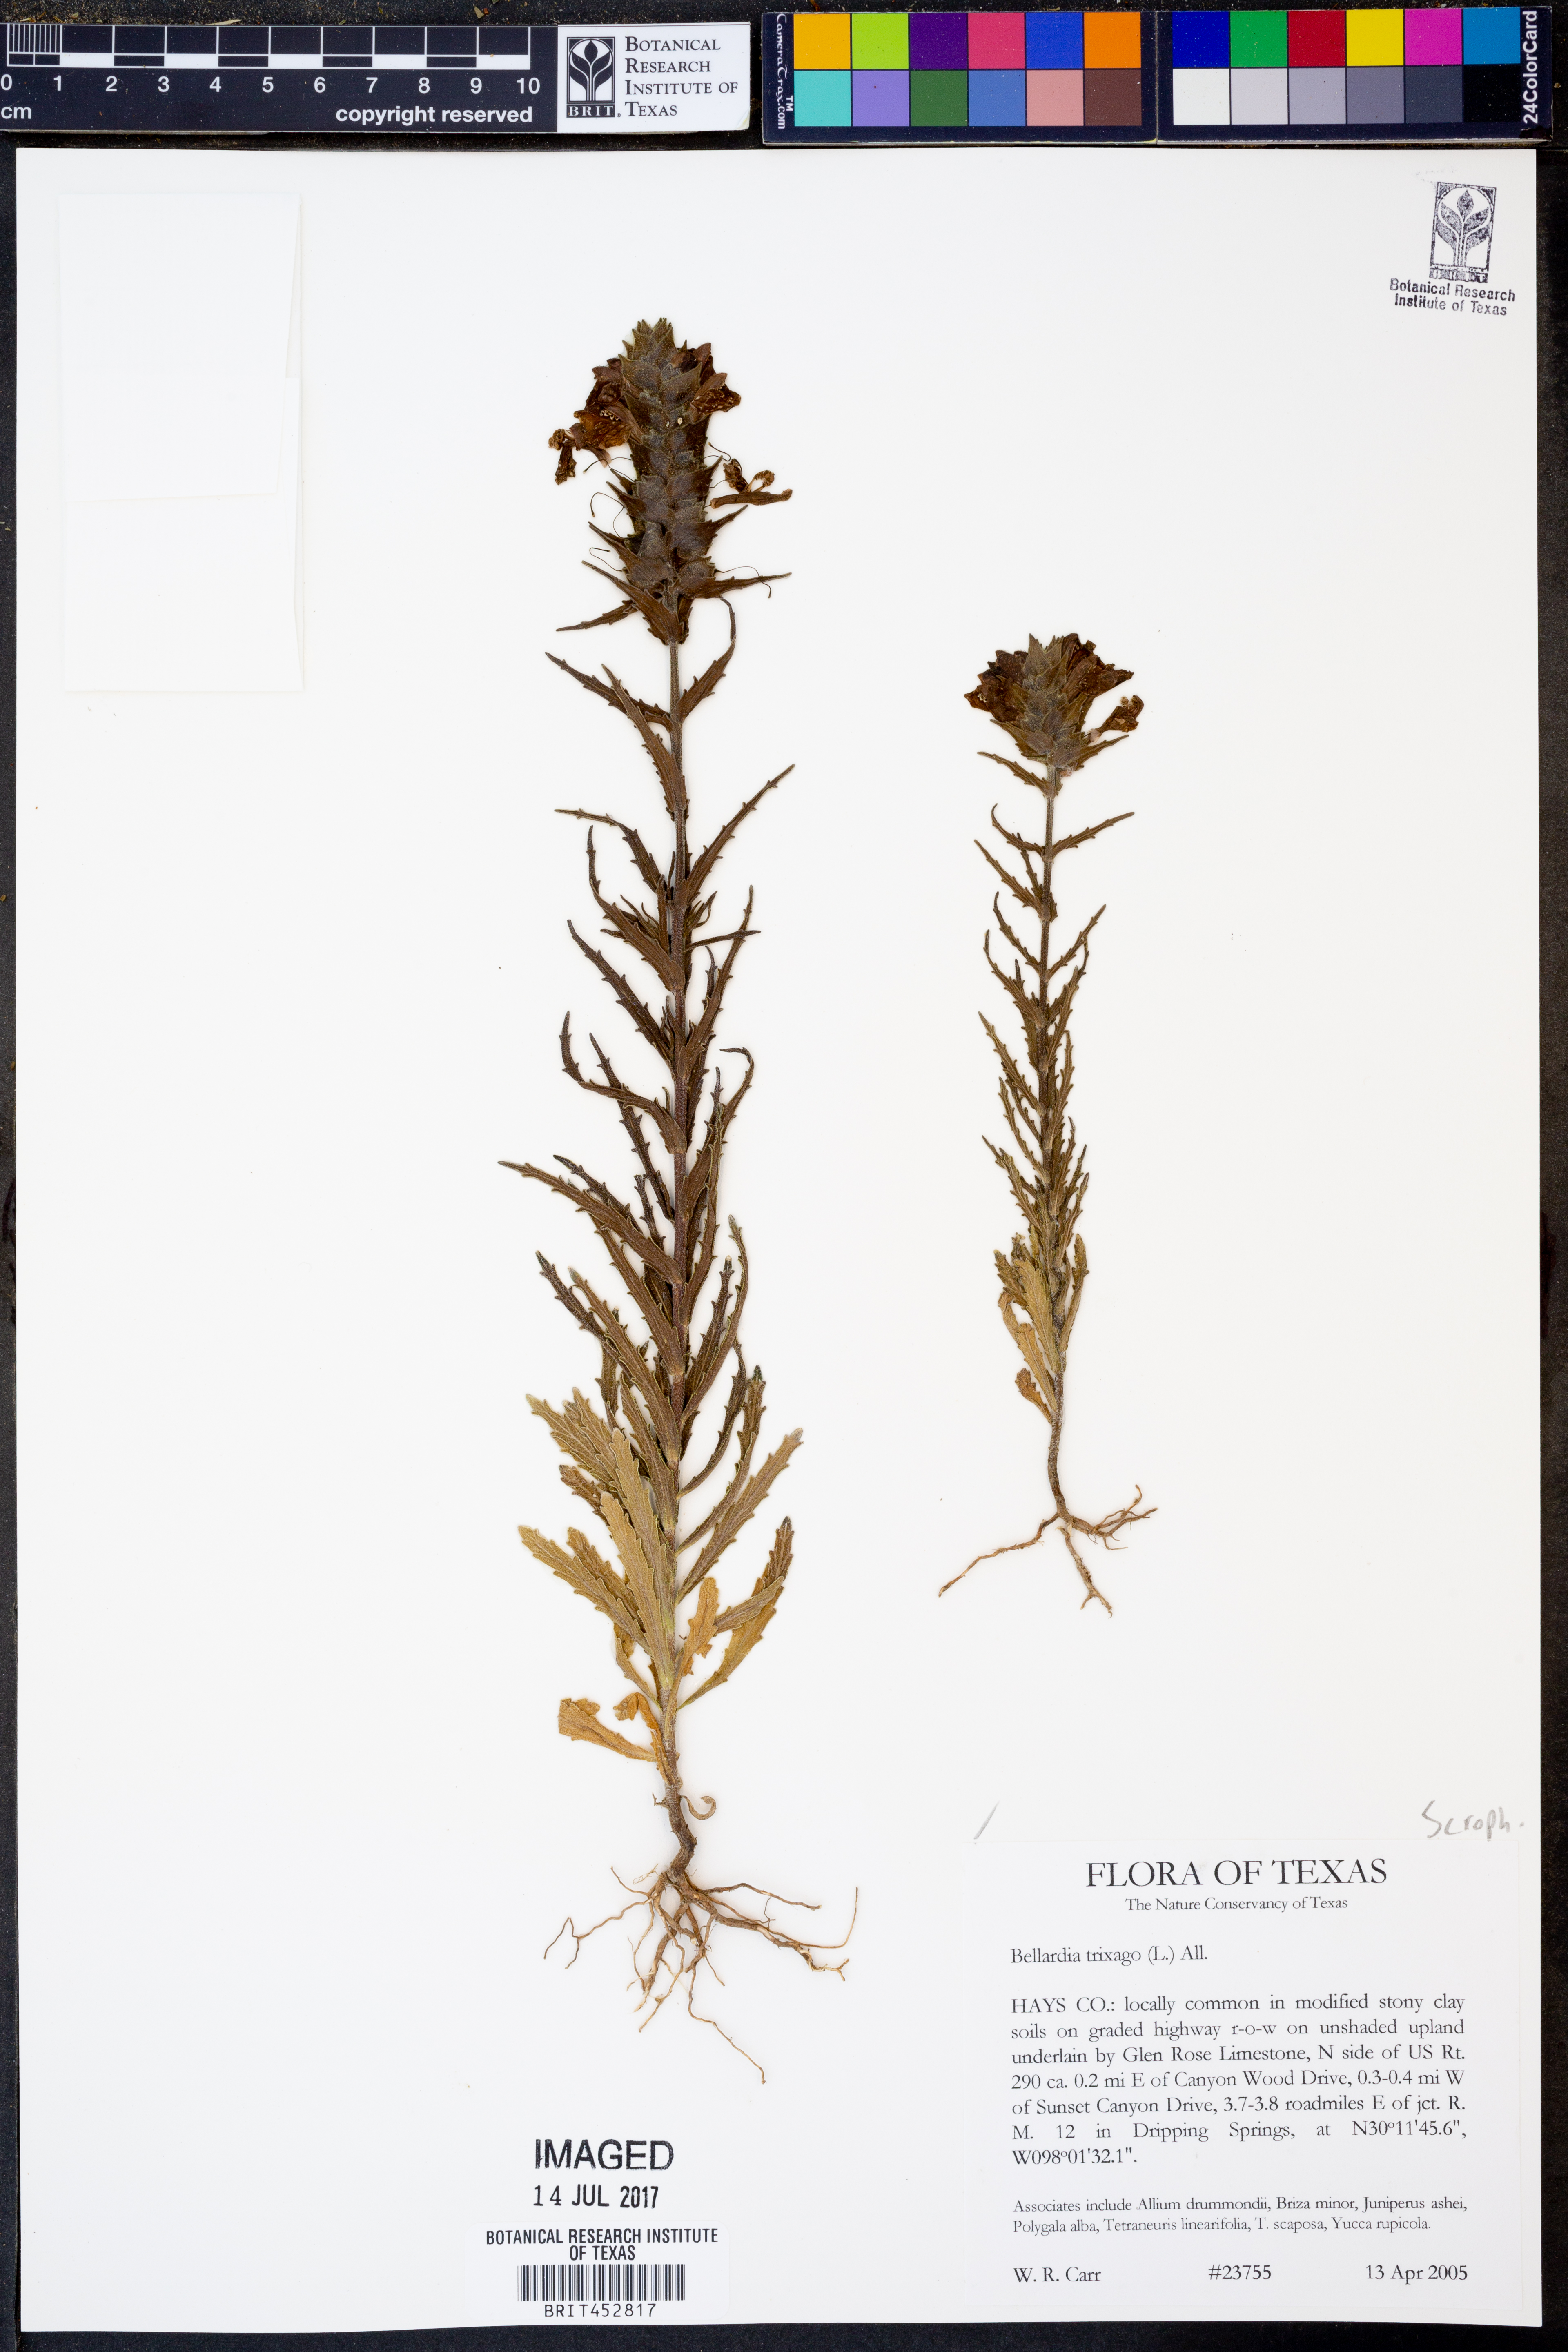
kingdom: Plantae
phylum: Tracheophyta
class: Magnoliopsida
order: Lamiales
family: Orobanchaceae
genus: Bellardia
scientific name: Bellardia trixago
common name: Mediterranean lineseed
